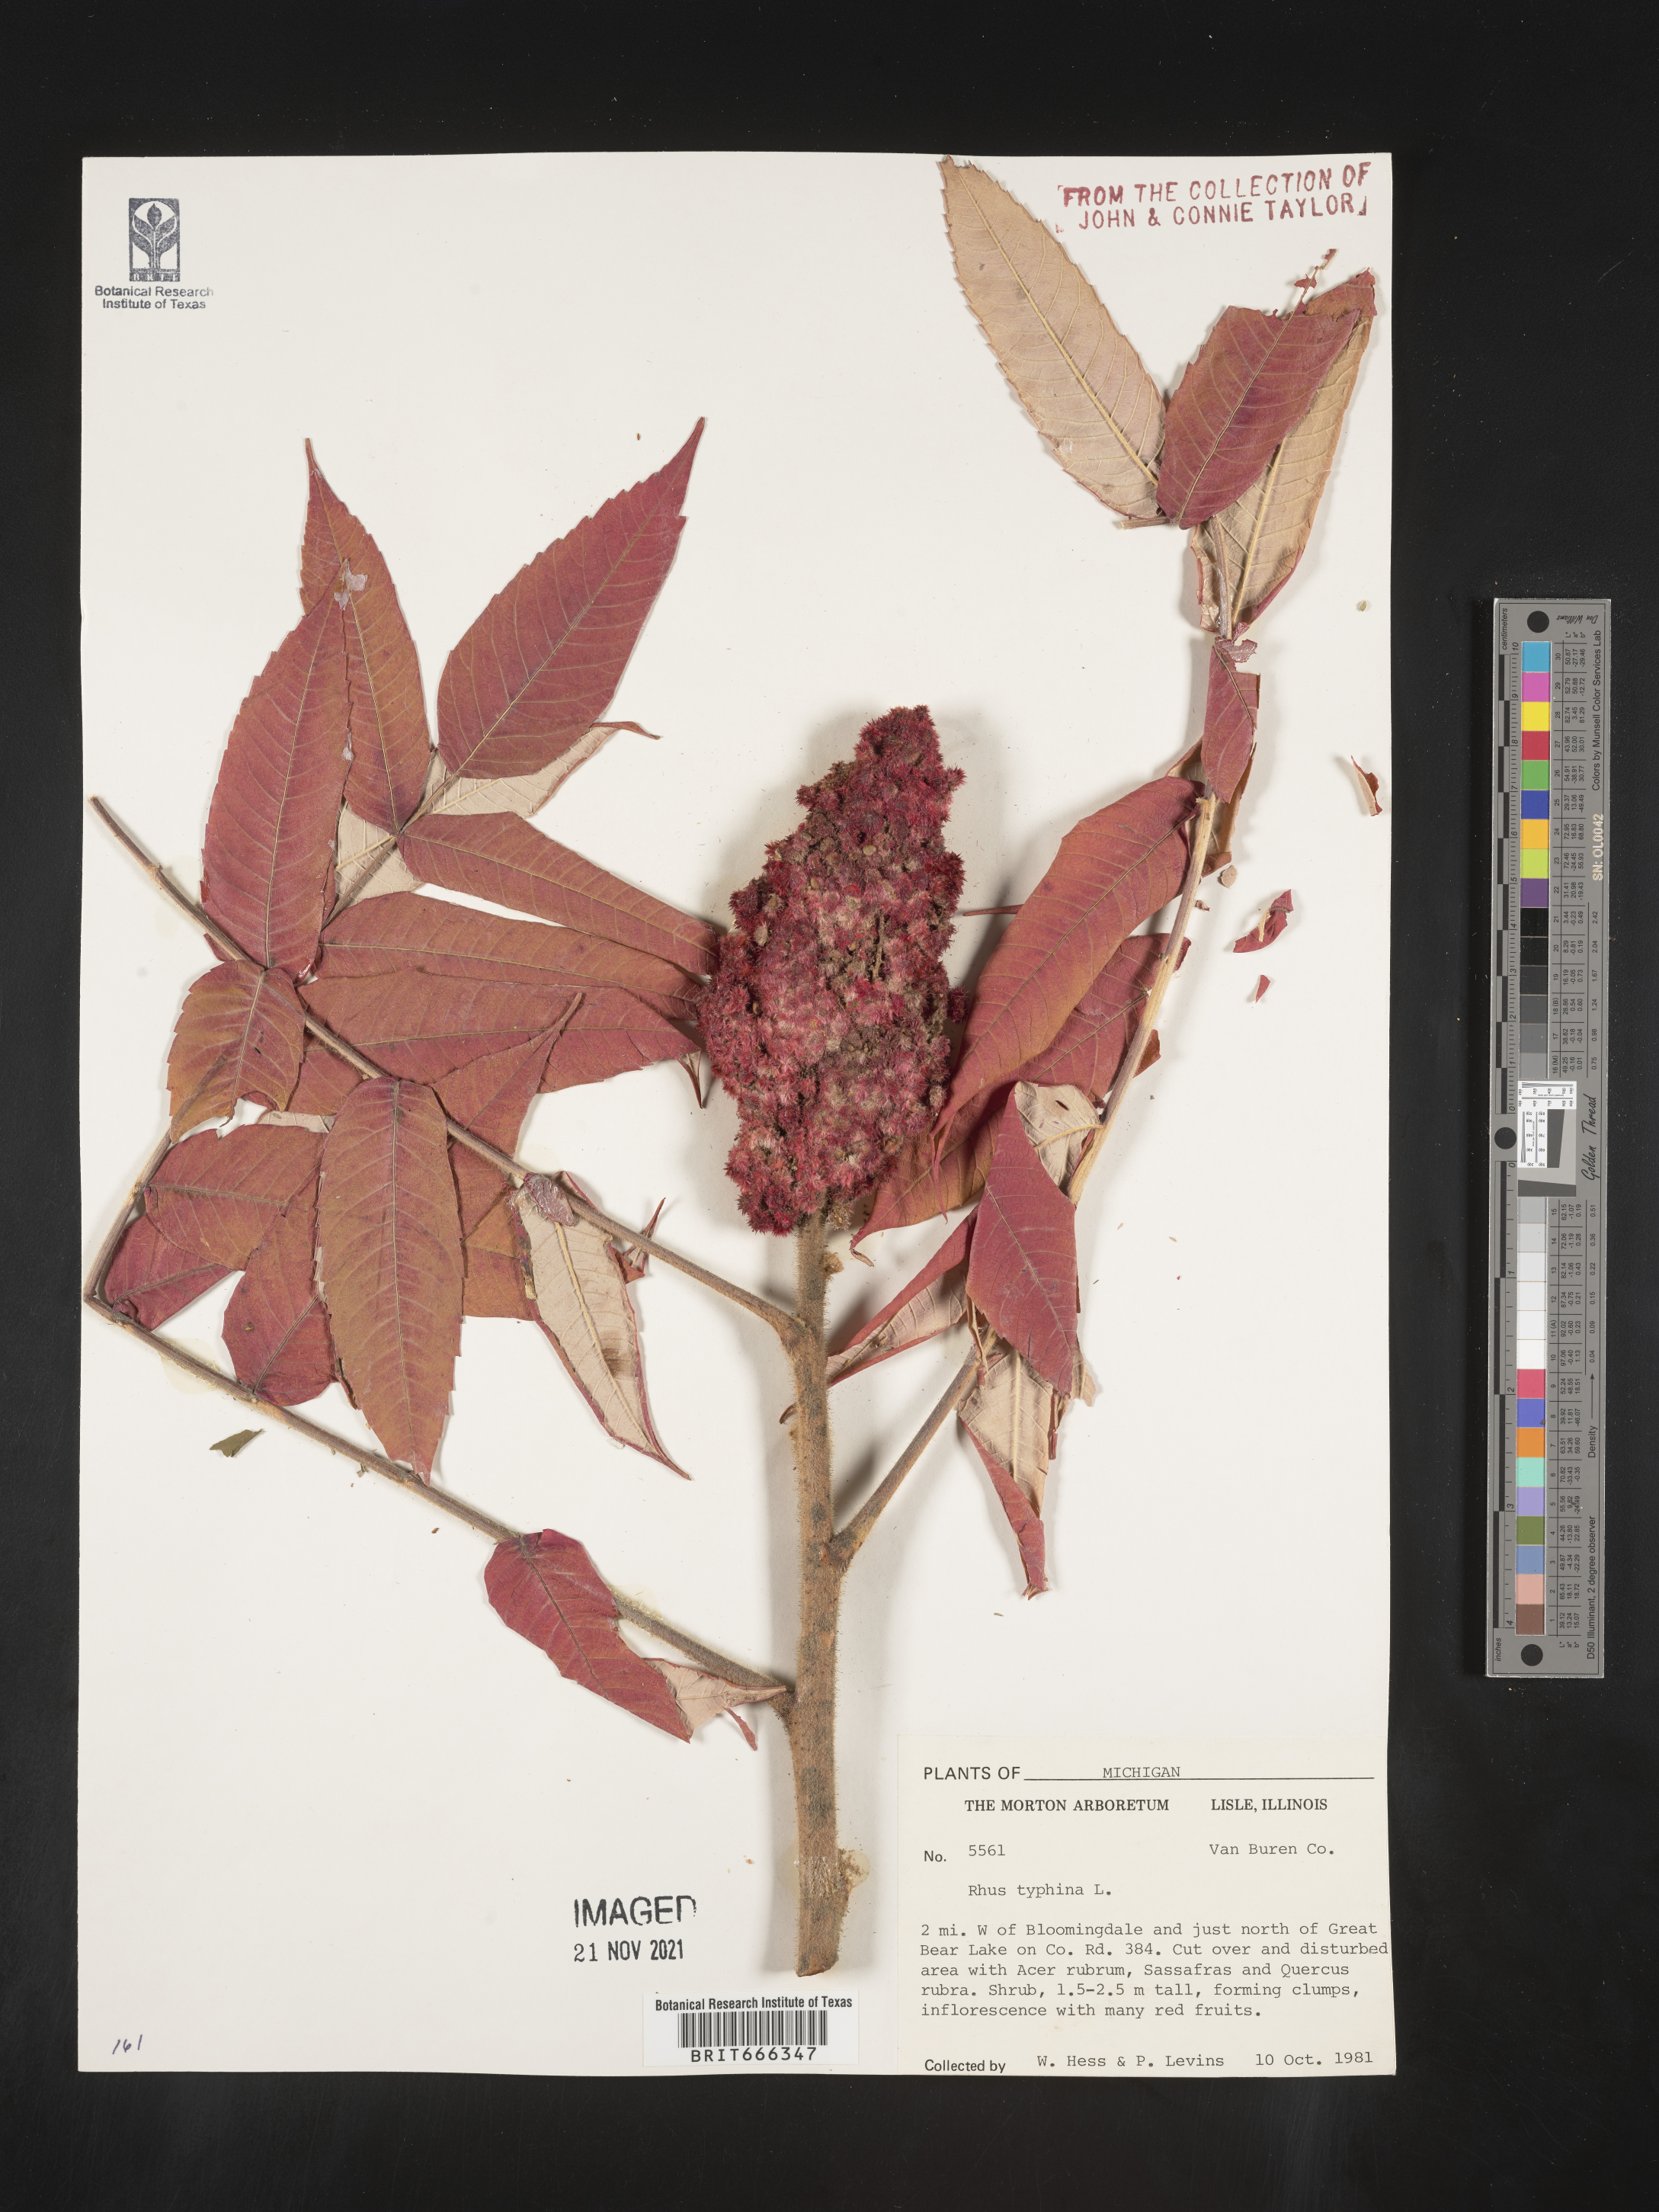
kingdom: Plantae
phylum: Tracheophyta
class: Magnoliopsida
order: Sapindales
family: Anacardiaceae
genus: Rhus
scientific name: Rhus typhina
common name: Staghorn sumac
